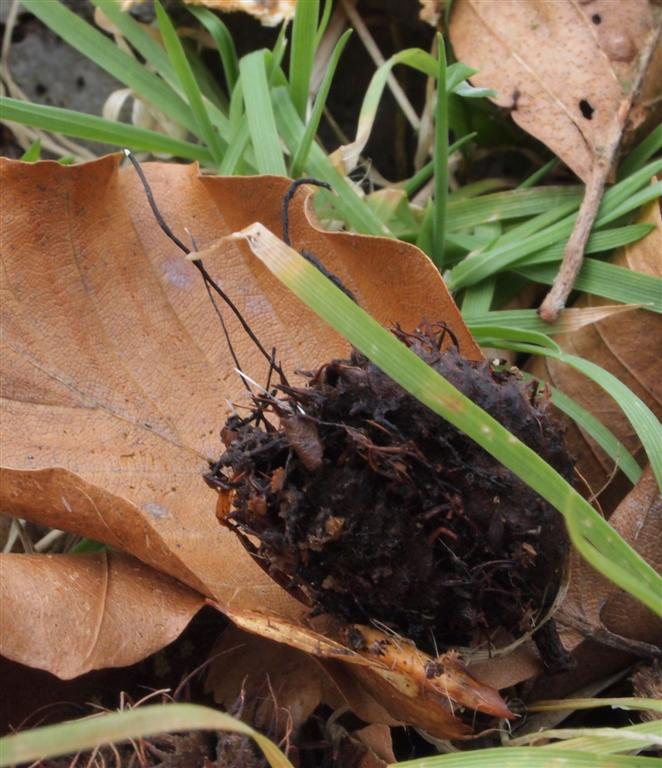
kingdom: Fungi
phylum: Ascomycota
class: Sordariomycetes
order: Xylariales
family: Xylariaceae
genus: Xylaria
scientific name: Xylaria carpophila
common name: bogskål-stødsvamp
